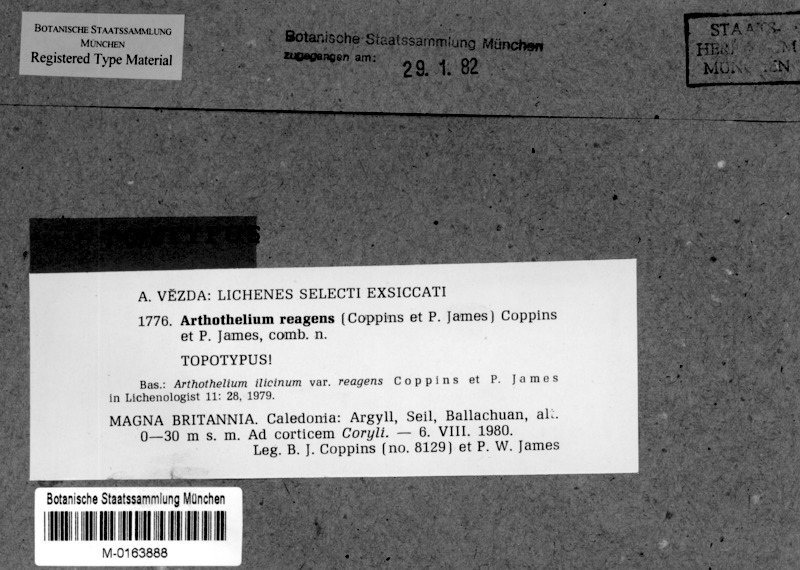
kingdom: Fungi
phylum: Ascomycota
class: Arthoniomycetes
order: Arthoniales
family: Arthoniaceae
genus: Arthothelium
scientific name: Arthothelium macounii
